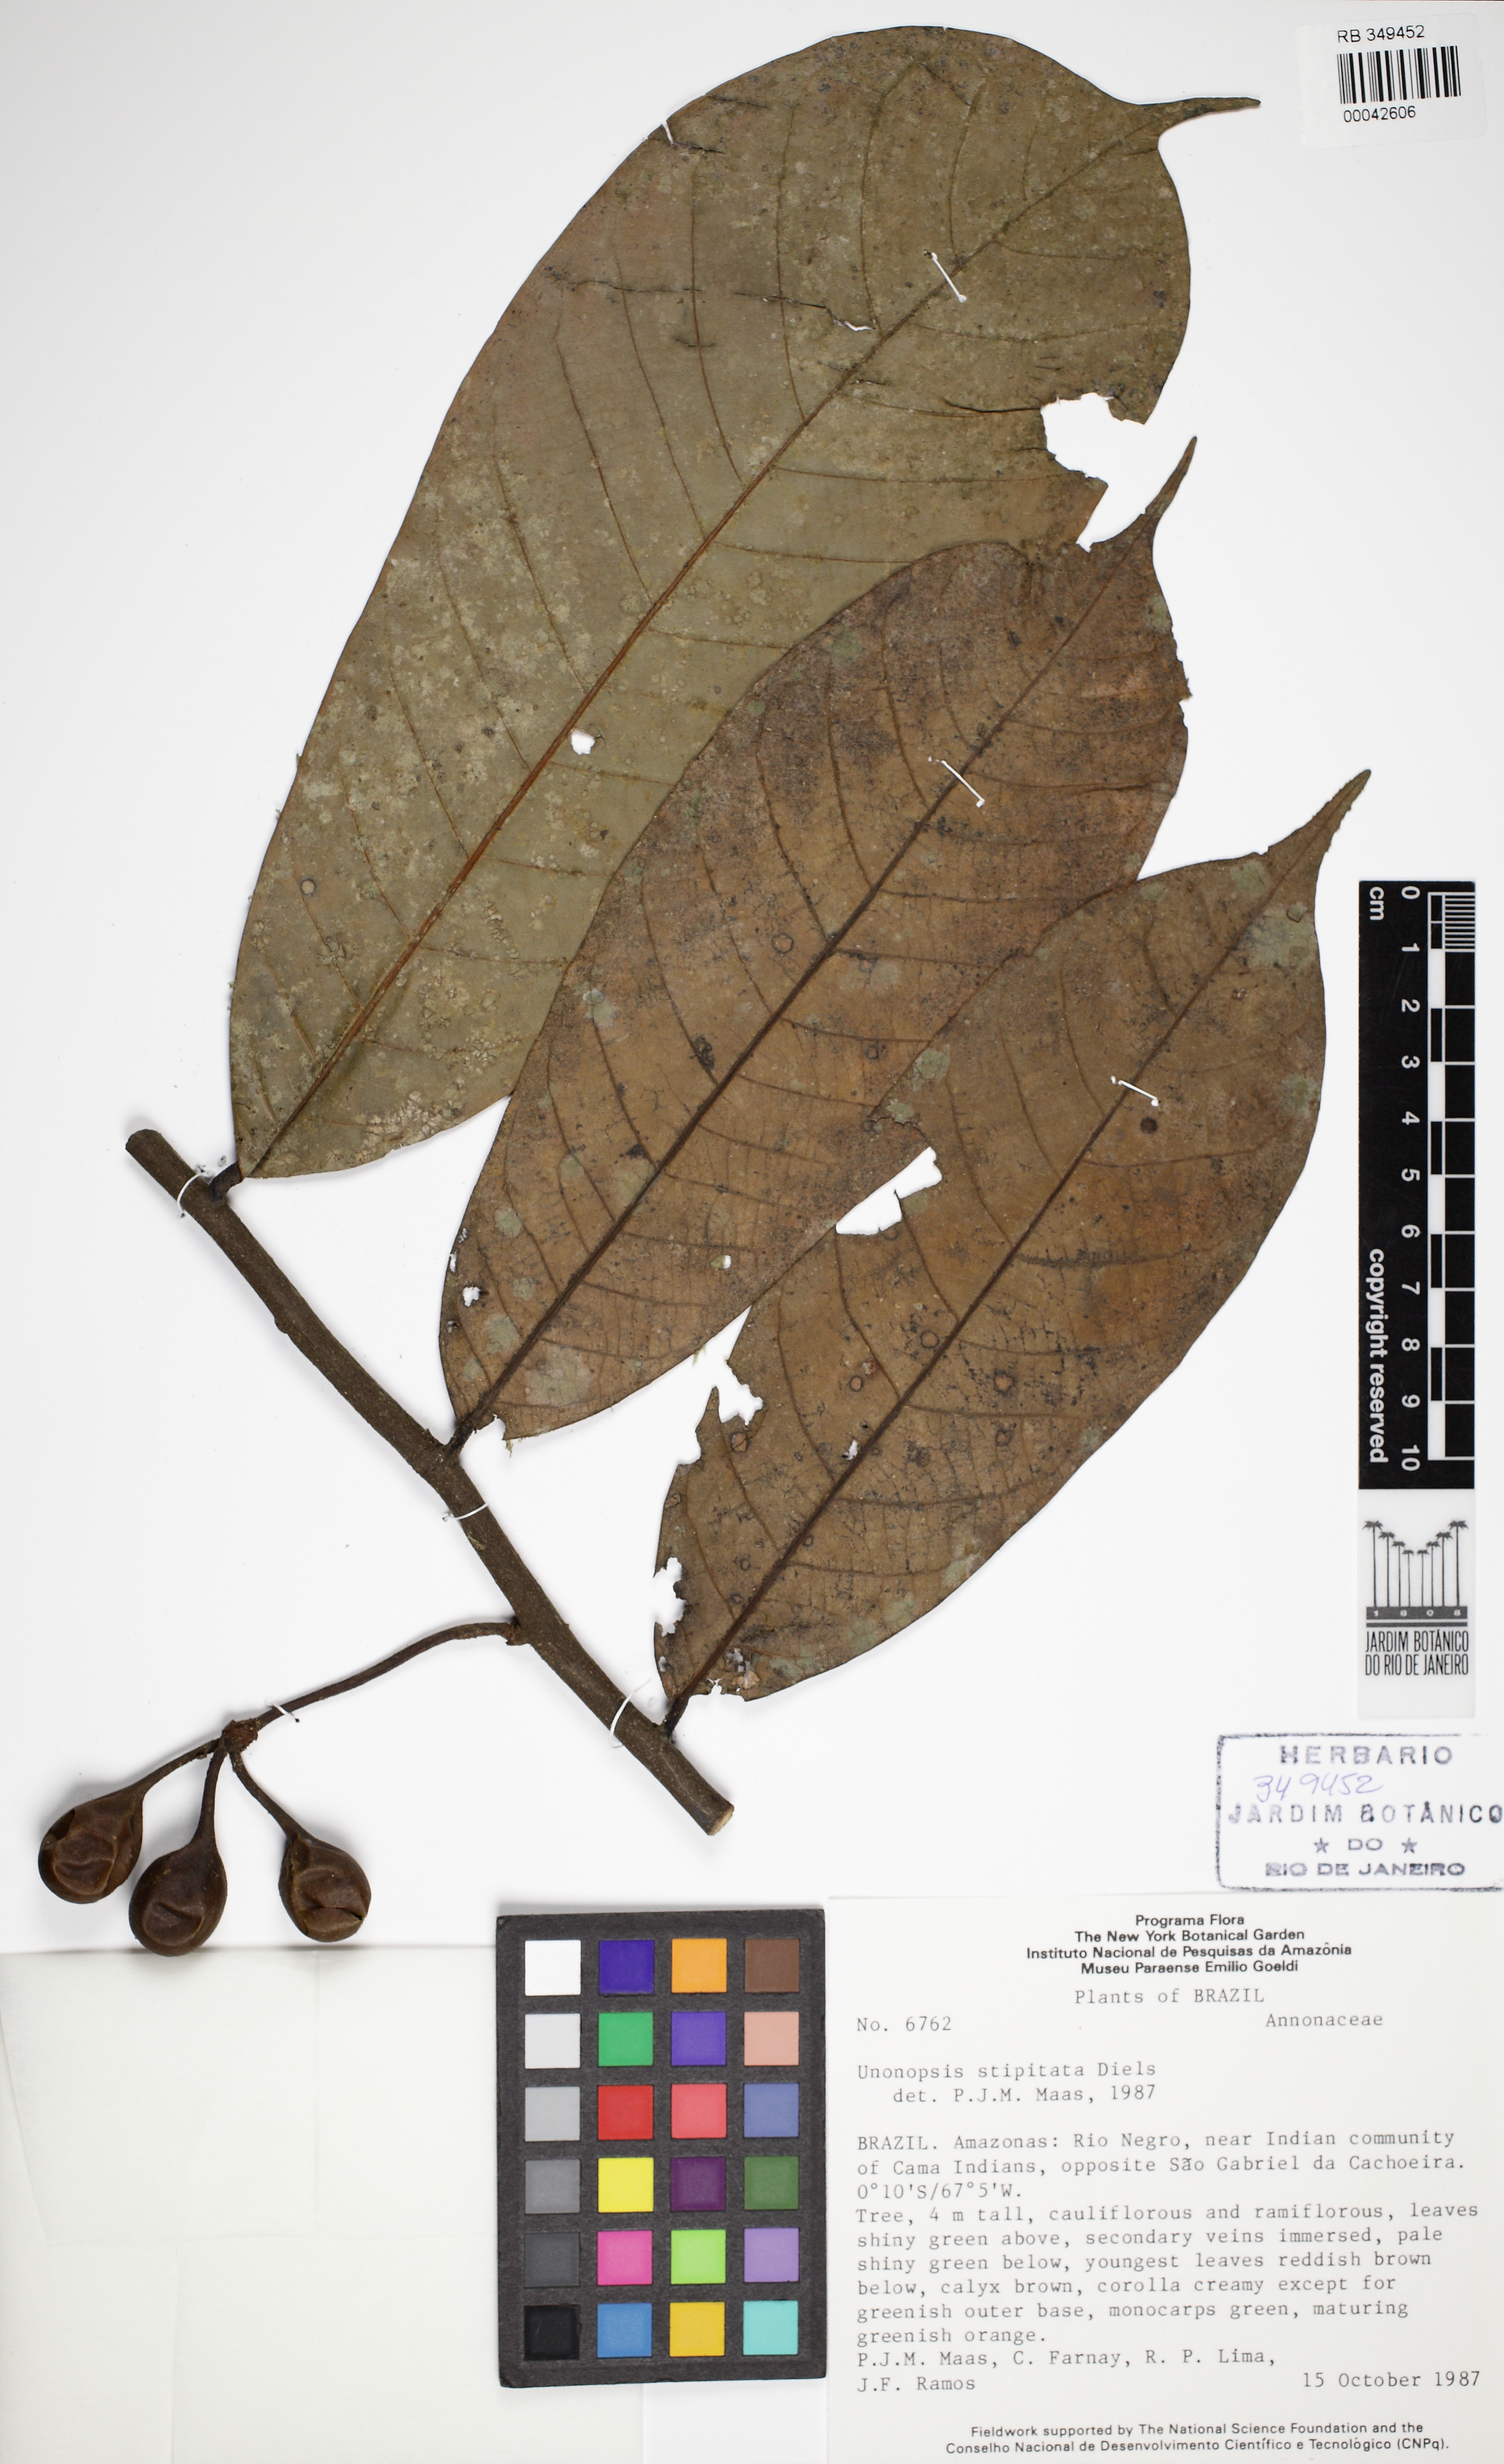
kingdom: Plantae
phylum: Tracheophyta
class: Magnoliopsida
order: Magnoliales
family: Annonaceae
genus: Unonopsis
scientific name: Unonopsis
